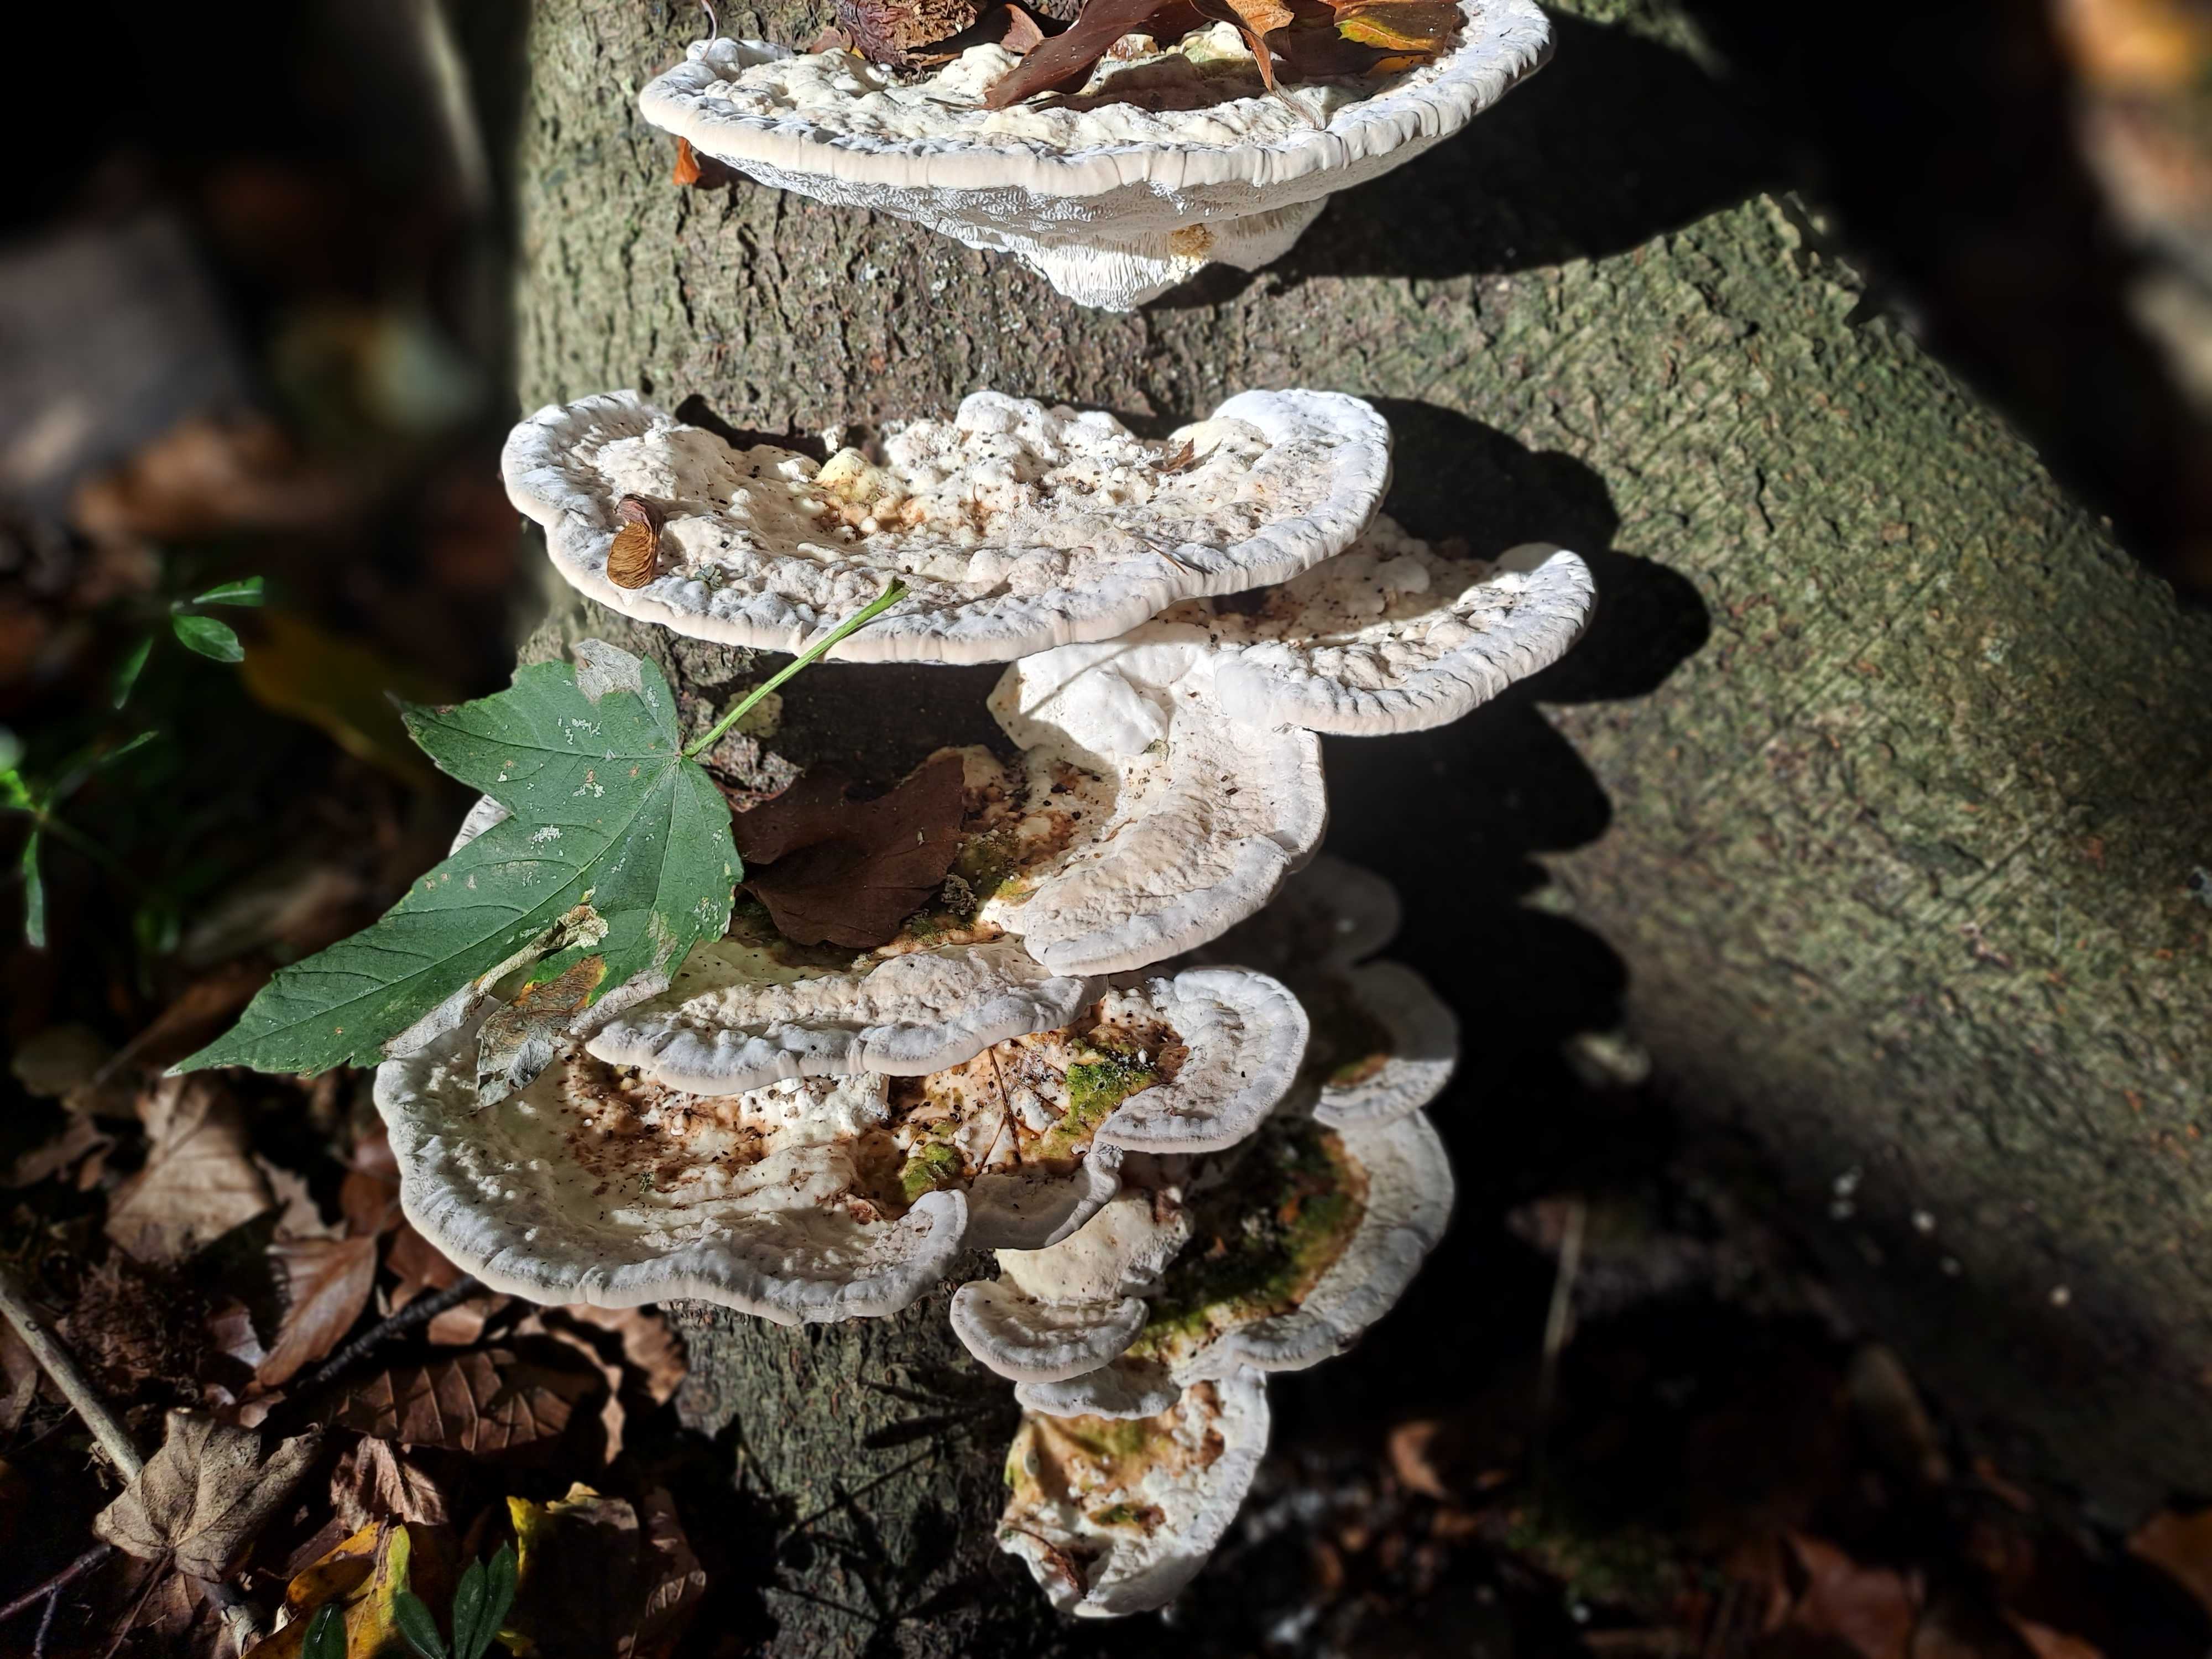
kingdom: Fungi
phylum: Basidiomycota
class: Agaricomycetes
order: Polyporales
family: Polyporaceae
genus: Trametes
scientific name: Trametes gibbosa
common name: puklet læderporesvamp
